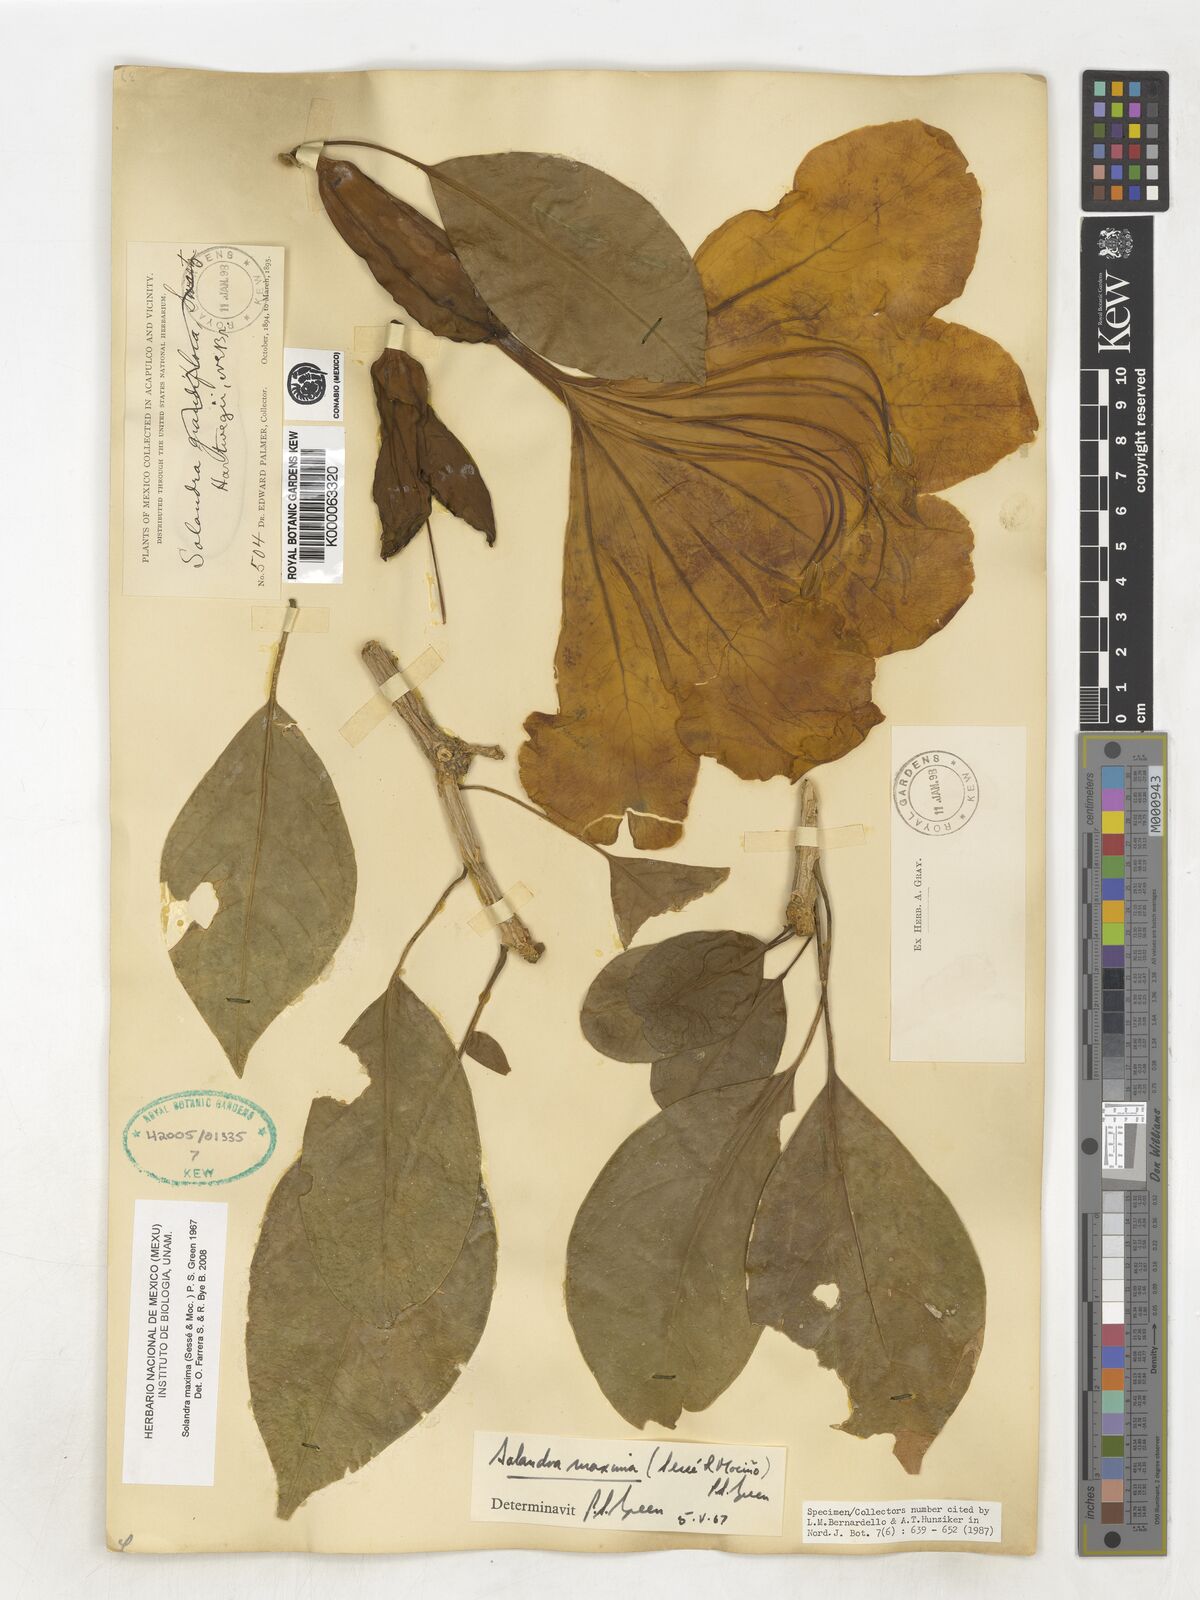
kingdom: Plantae
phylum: Tracheophyta
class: Magnoliopsida
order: Solanales
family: Solanaceae
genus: Solandra
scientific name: Solandra maxima
